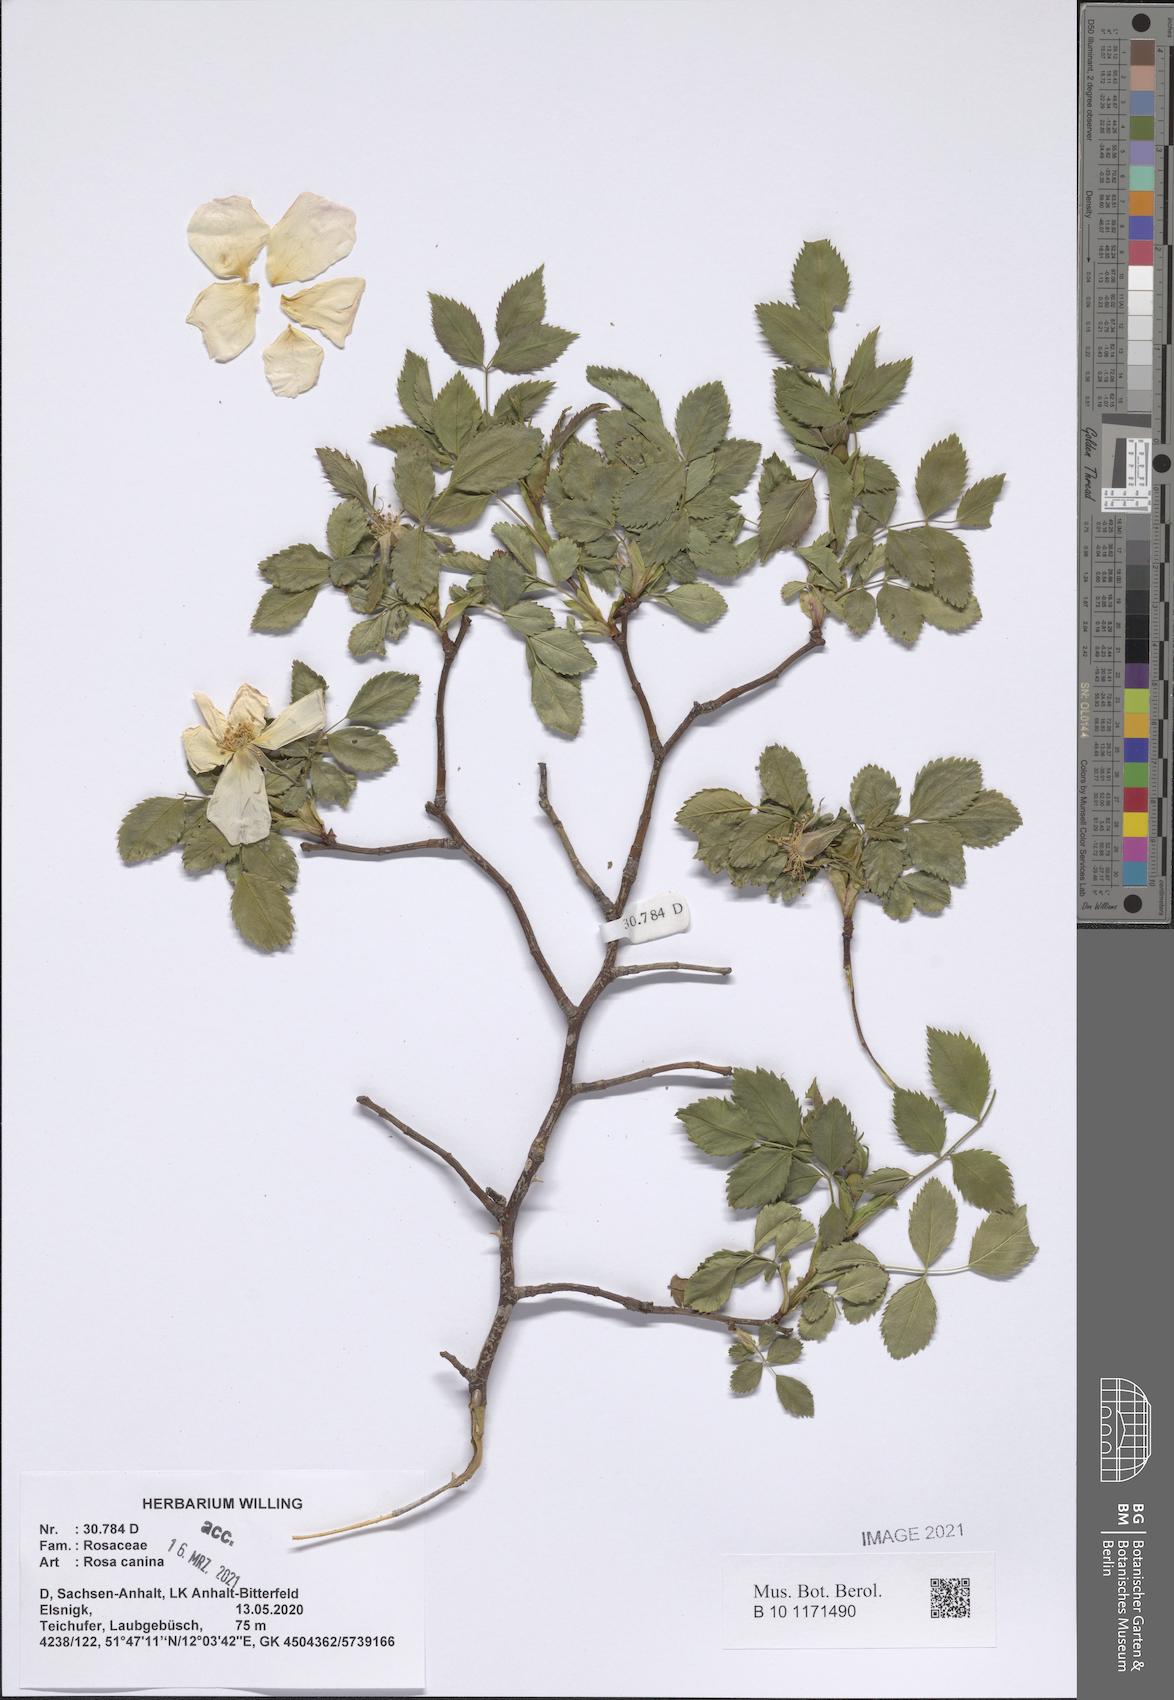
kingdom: Plantae
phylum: Tracheophyta
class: Magnoliopsida
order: Rosales
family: Rosaceae
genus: Rosa
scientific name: Rosa canina
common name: Dog rose
